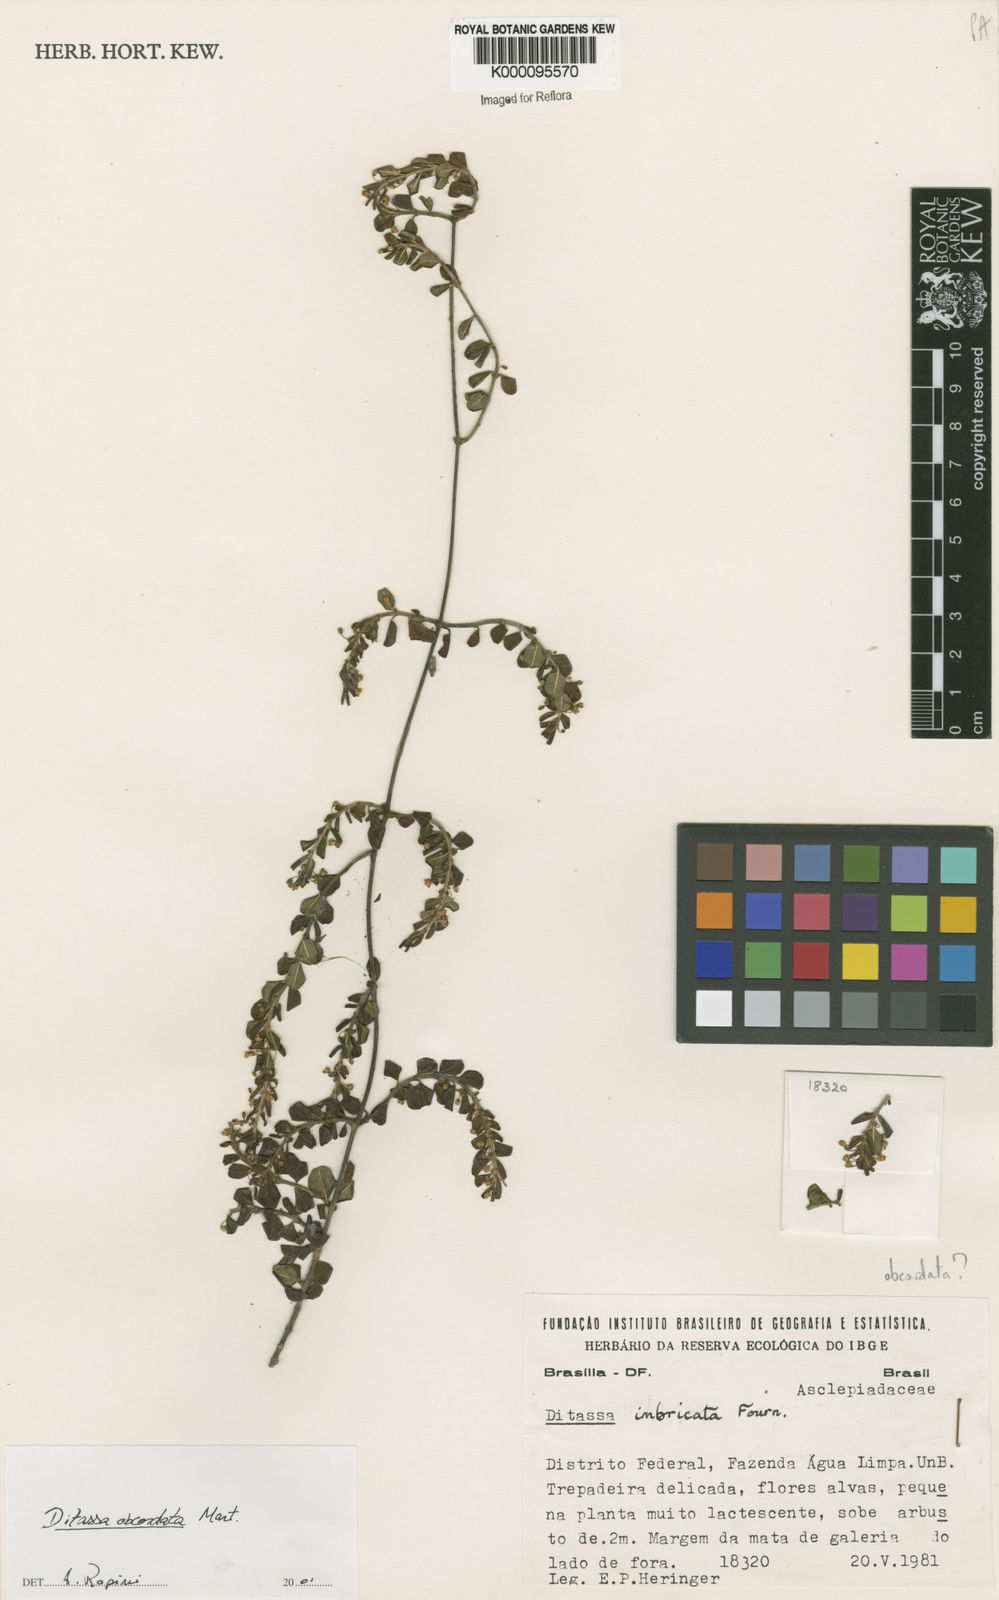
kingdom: Plantae
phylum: Tracheophyta
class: Magnoliopsida
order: Gentianales
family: Apocynaceae
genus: Ditassa
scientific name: Ditassa obcordata
